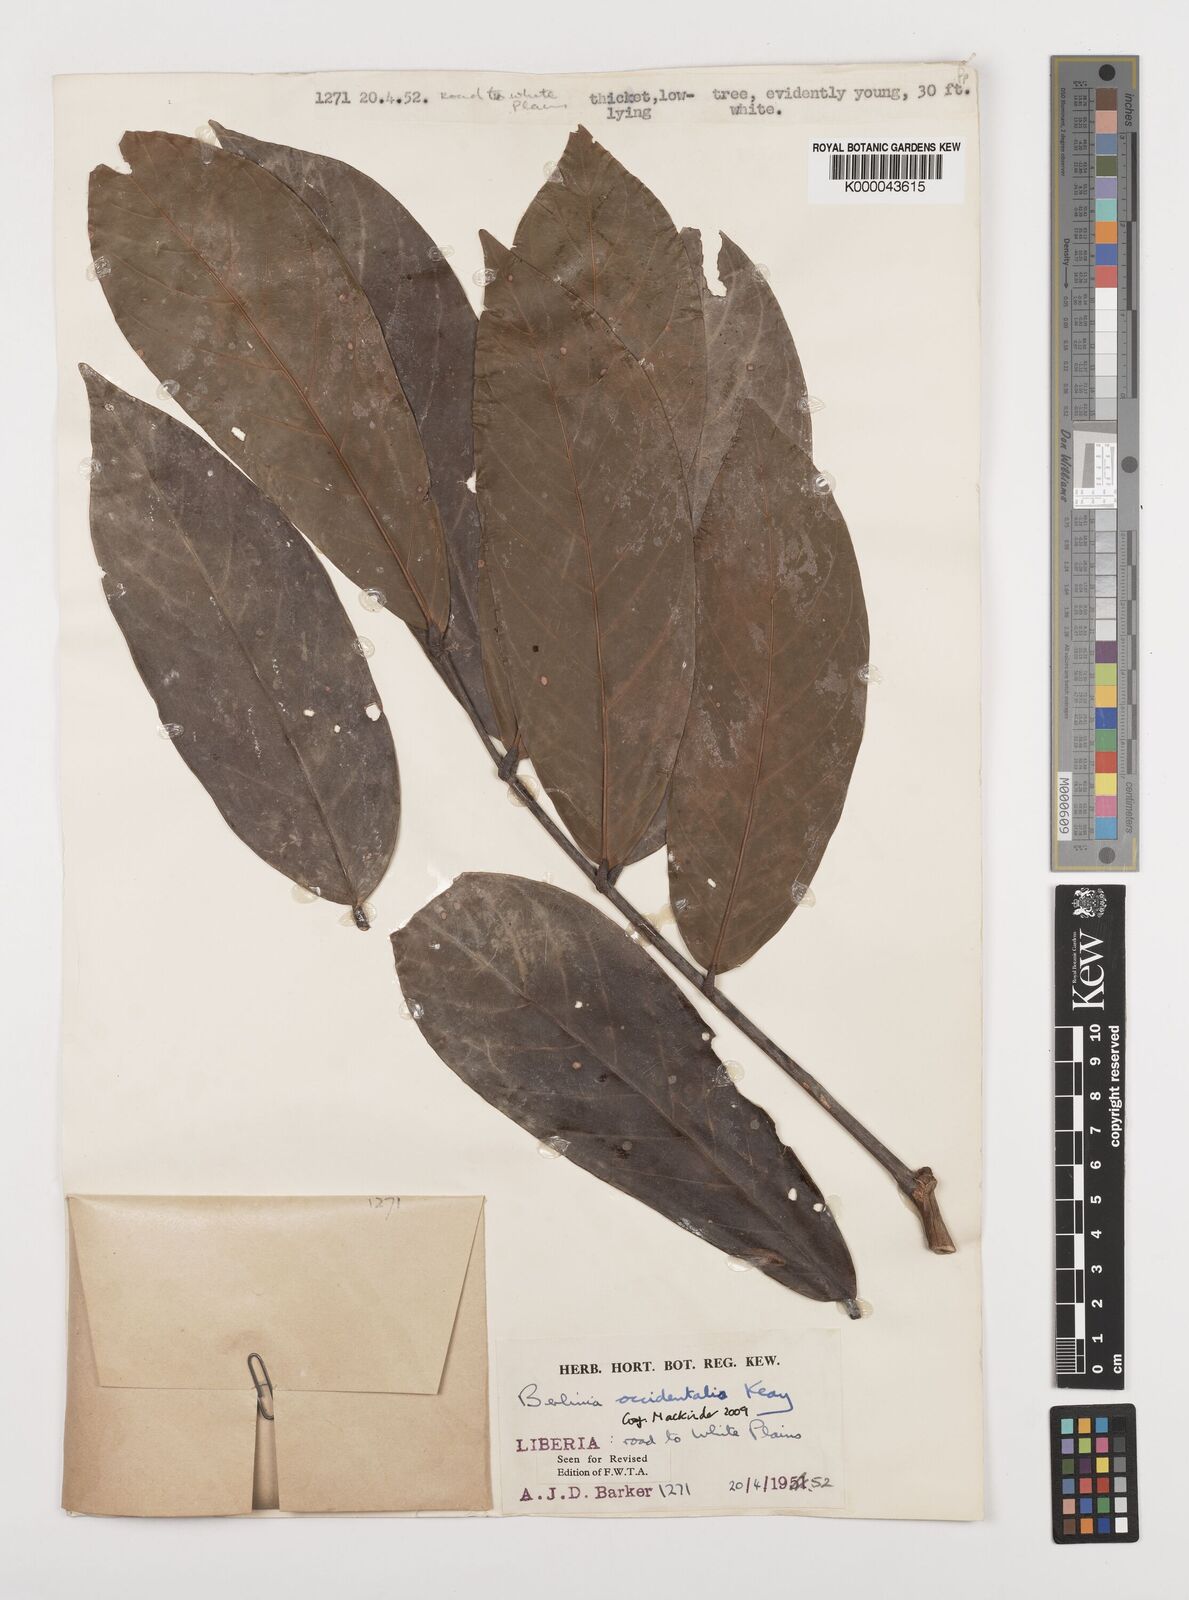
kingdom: Plantae
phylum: Tracheophyta
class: Magnoliopsida
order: Fabales
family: Fabaceae
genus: Berlinia
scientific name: Berlinia occidentalis
